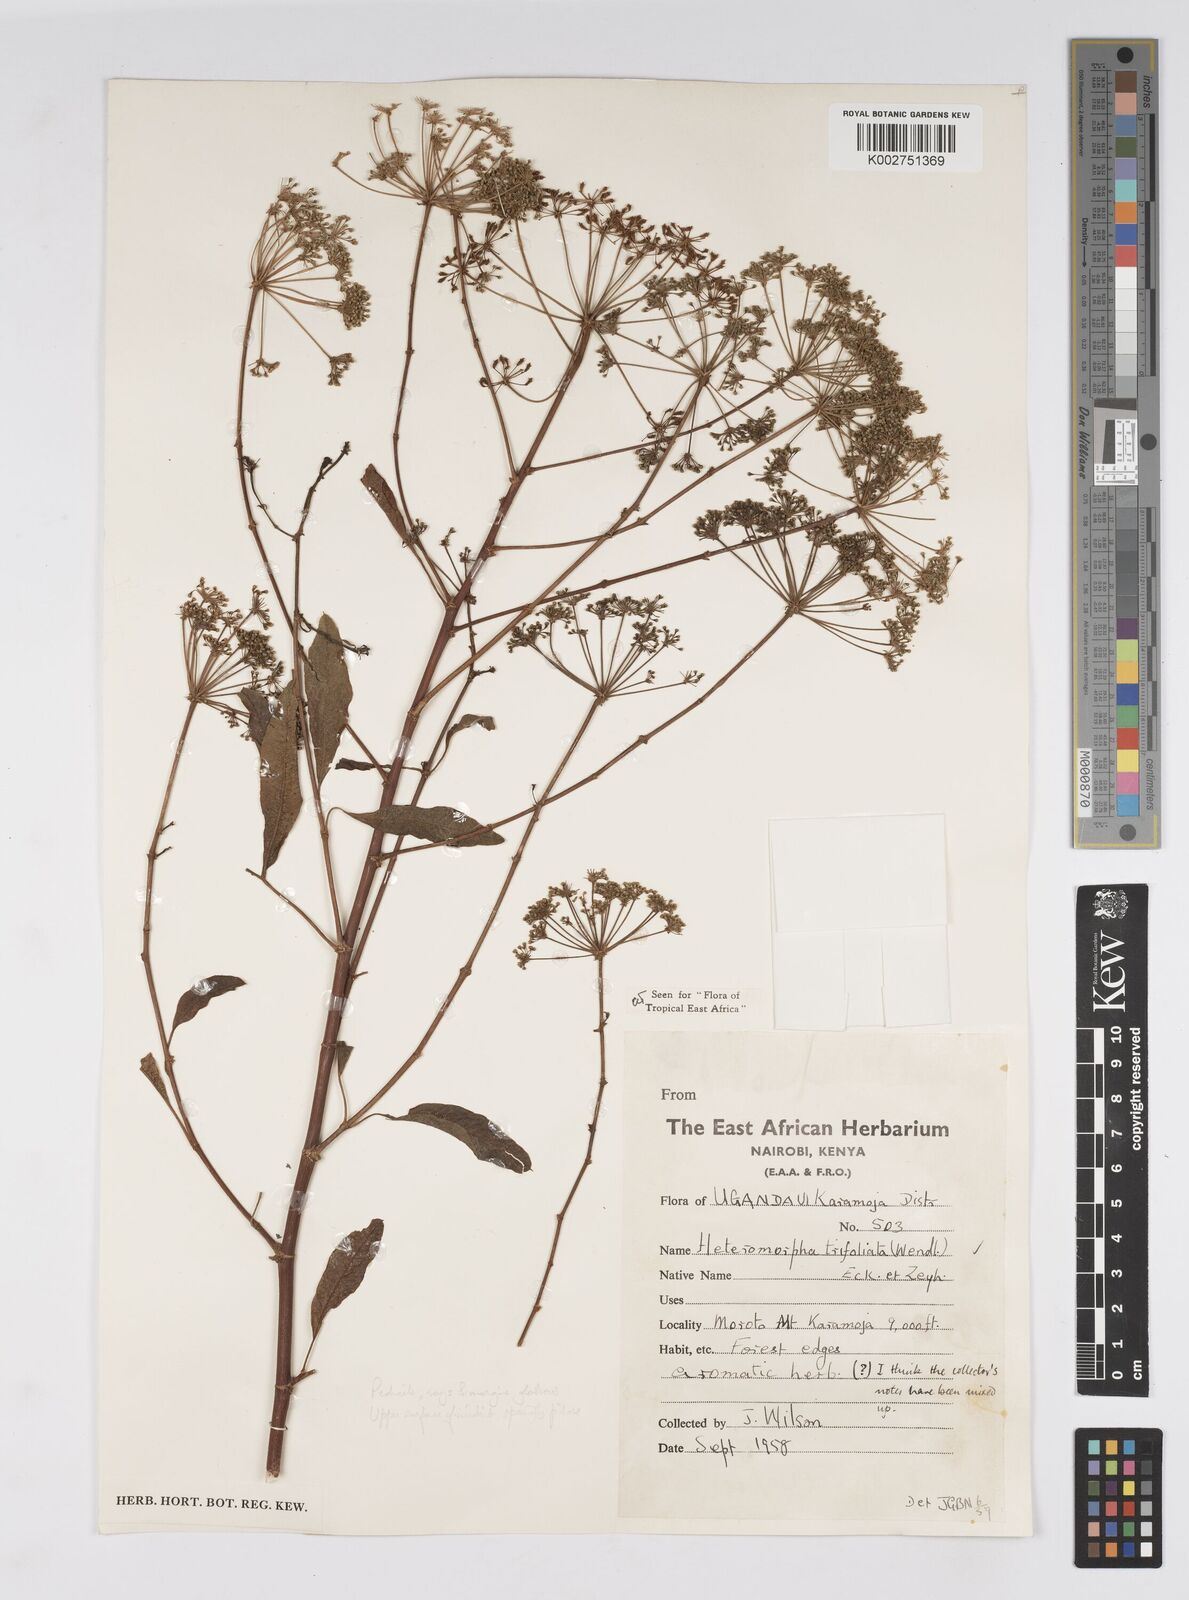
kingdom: Plantae
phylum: Tracheophyta
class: Magnoliopsida
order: Apiales
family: Apiaceae
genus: Heteromorpha
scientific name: Heteromorpha arborescens
